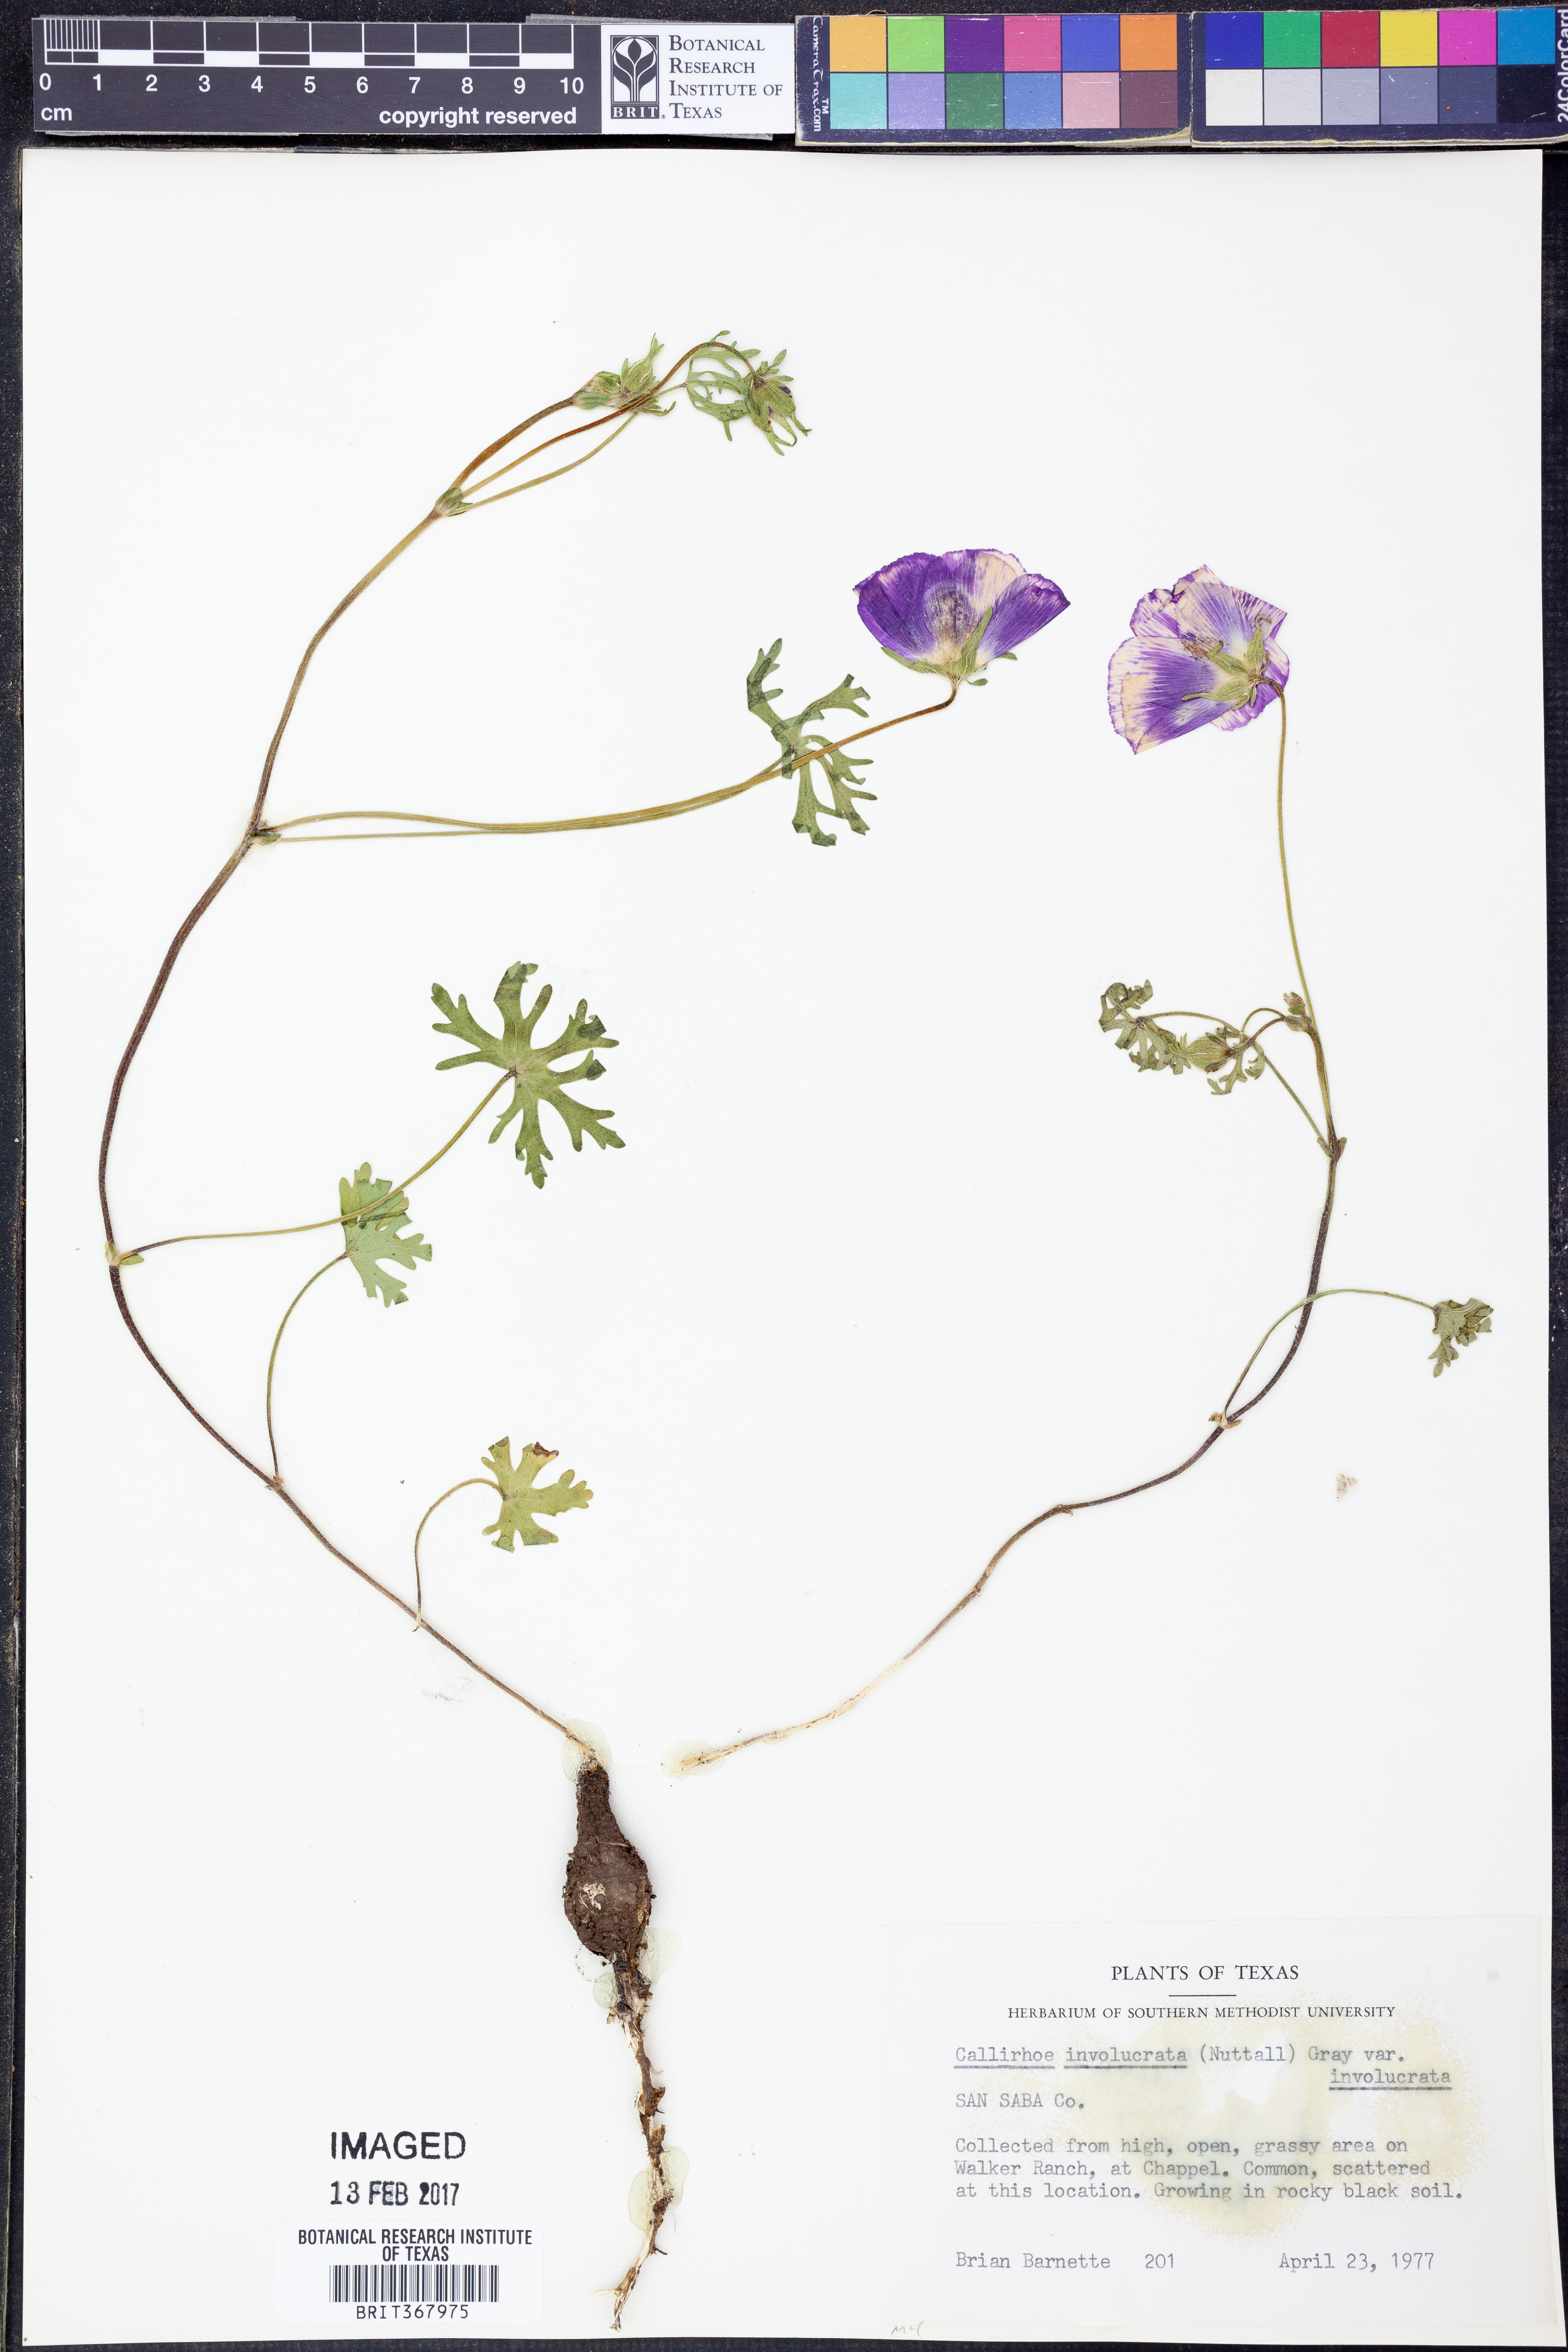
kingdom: Plantae
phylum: Tracheophyta
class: Magnoliopsida
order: Malvales
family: Malvaceae
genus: Callirhoe
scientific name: Callirhoe involucrata
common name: Purple poppy-mallow
